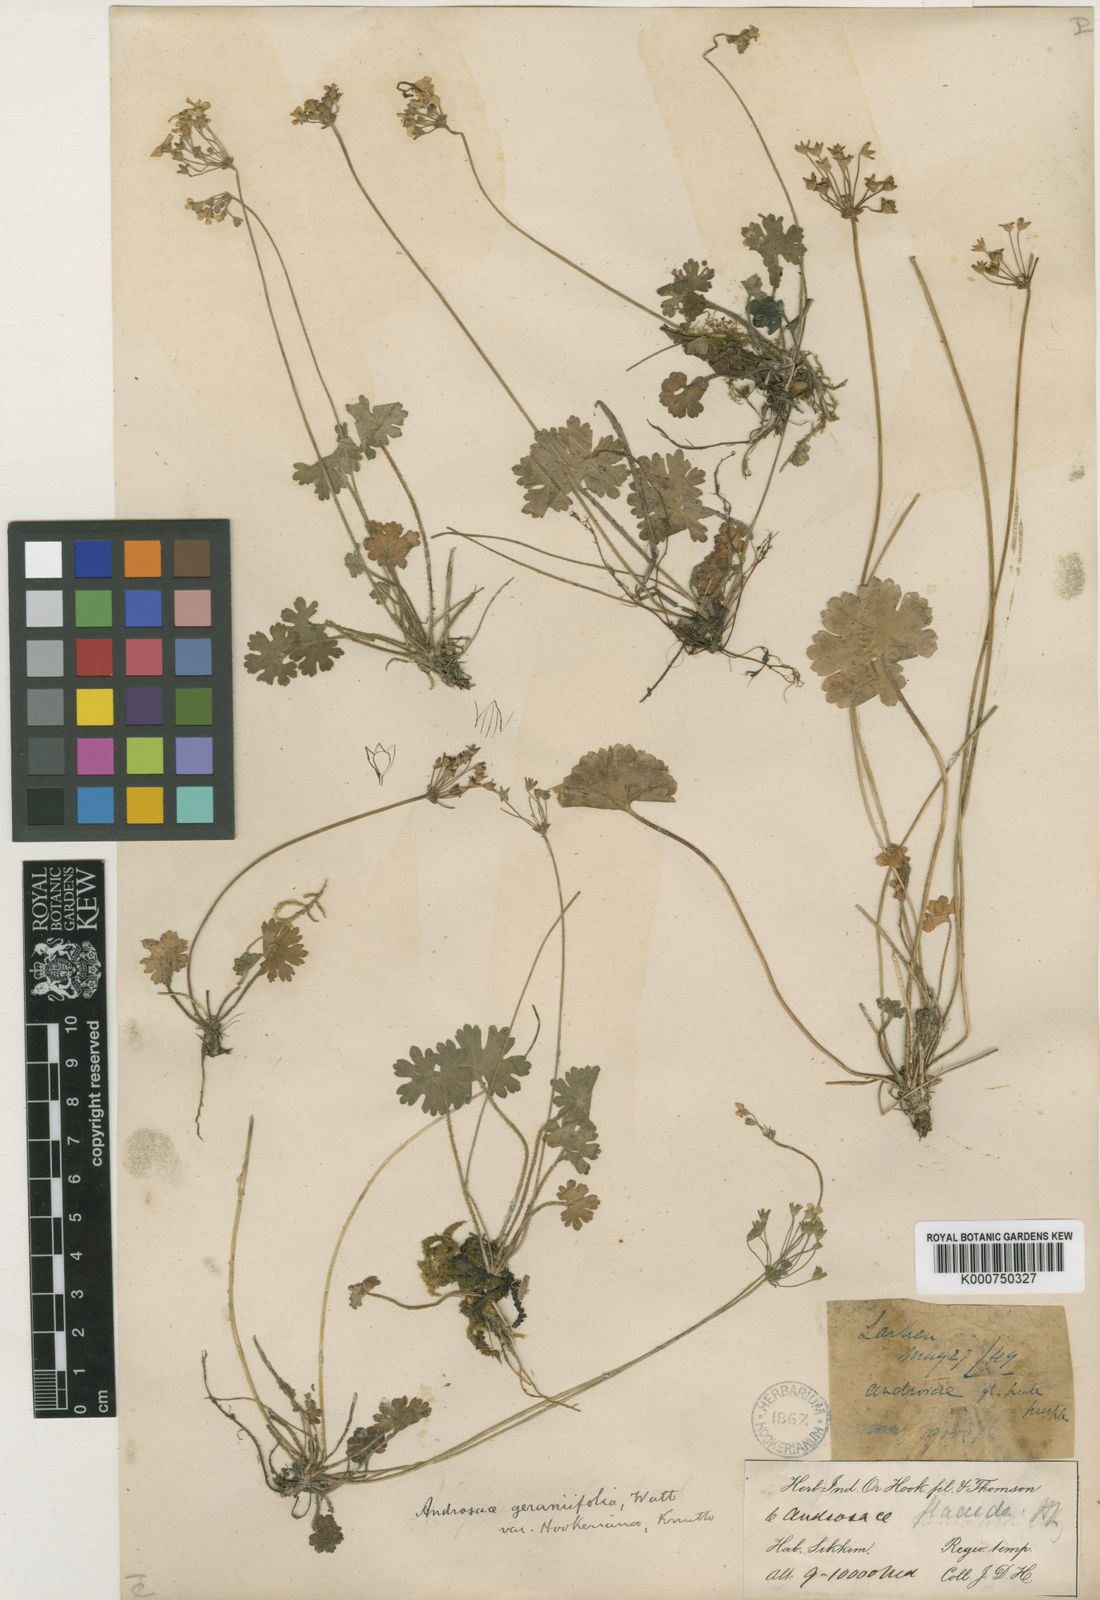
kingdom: Plantae
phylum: Tracheophyta
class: Magnoliopsida
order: Ericales
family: Primulaceae
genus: Androsace
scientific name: Androsace geraniifolia
